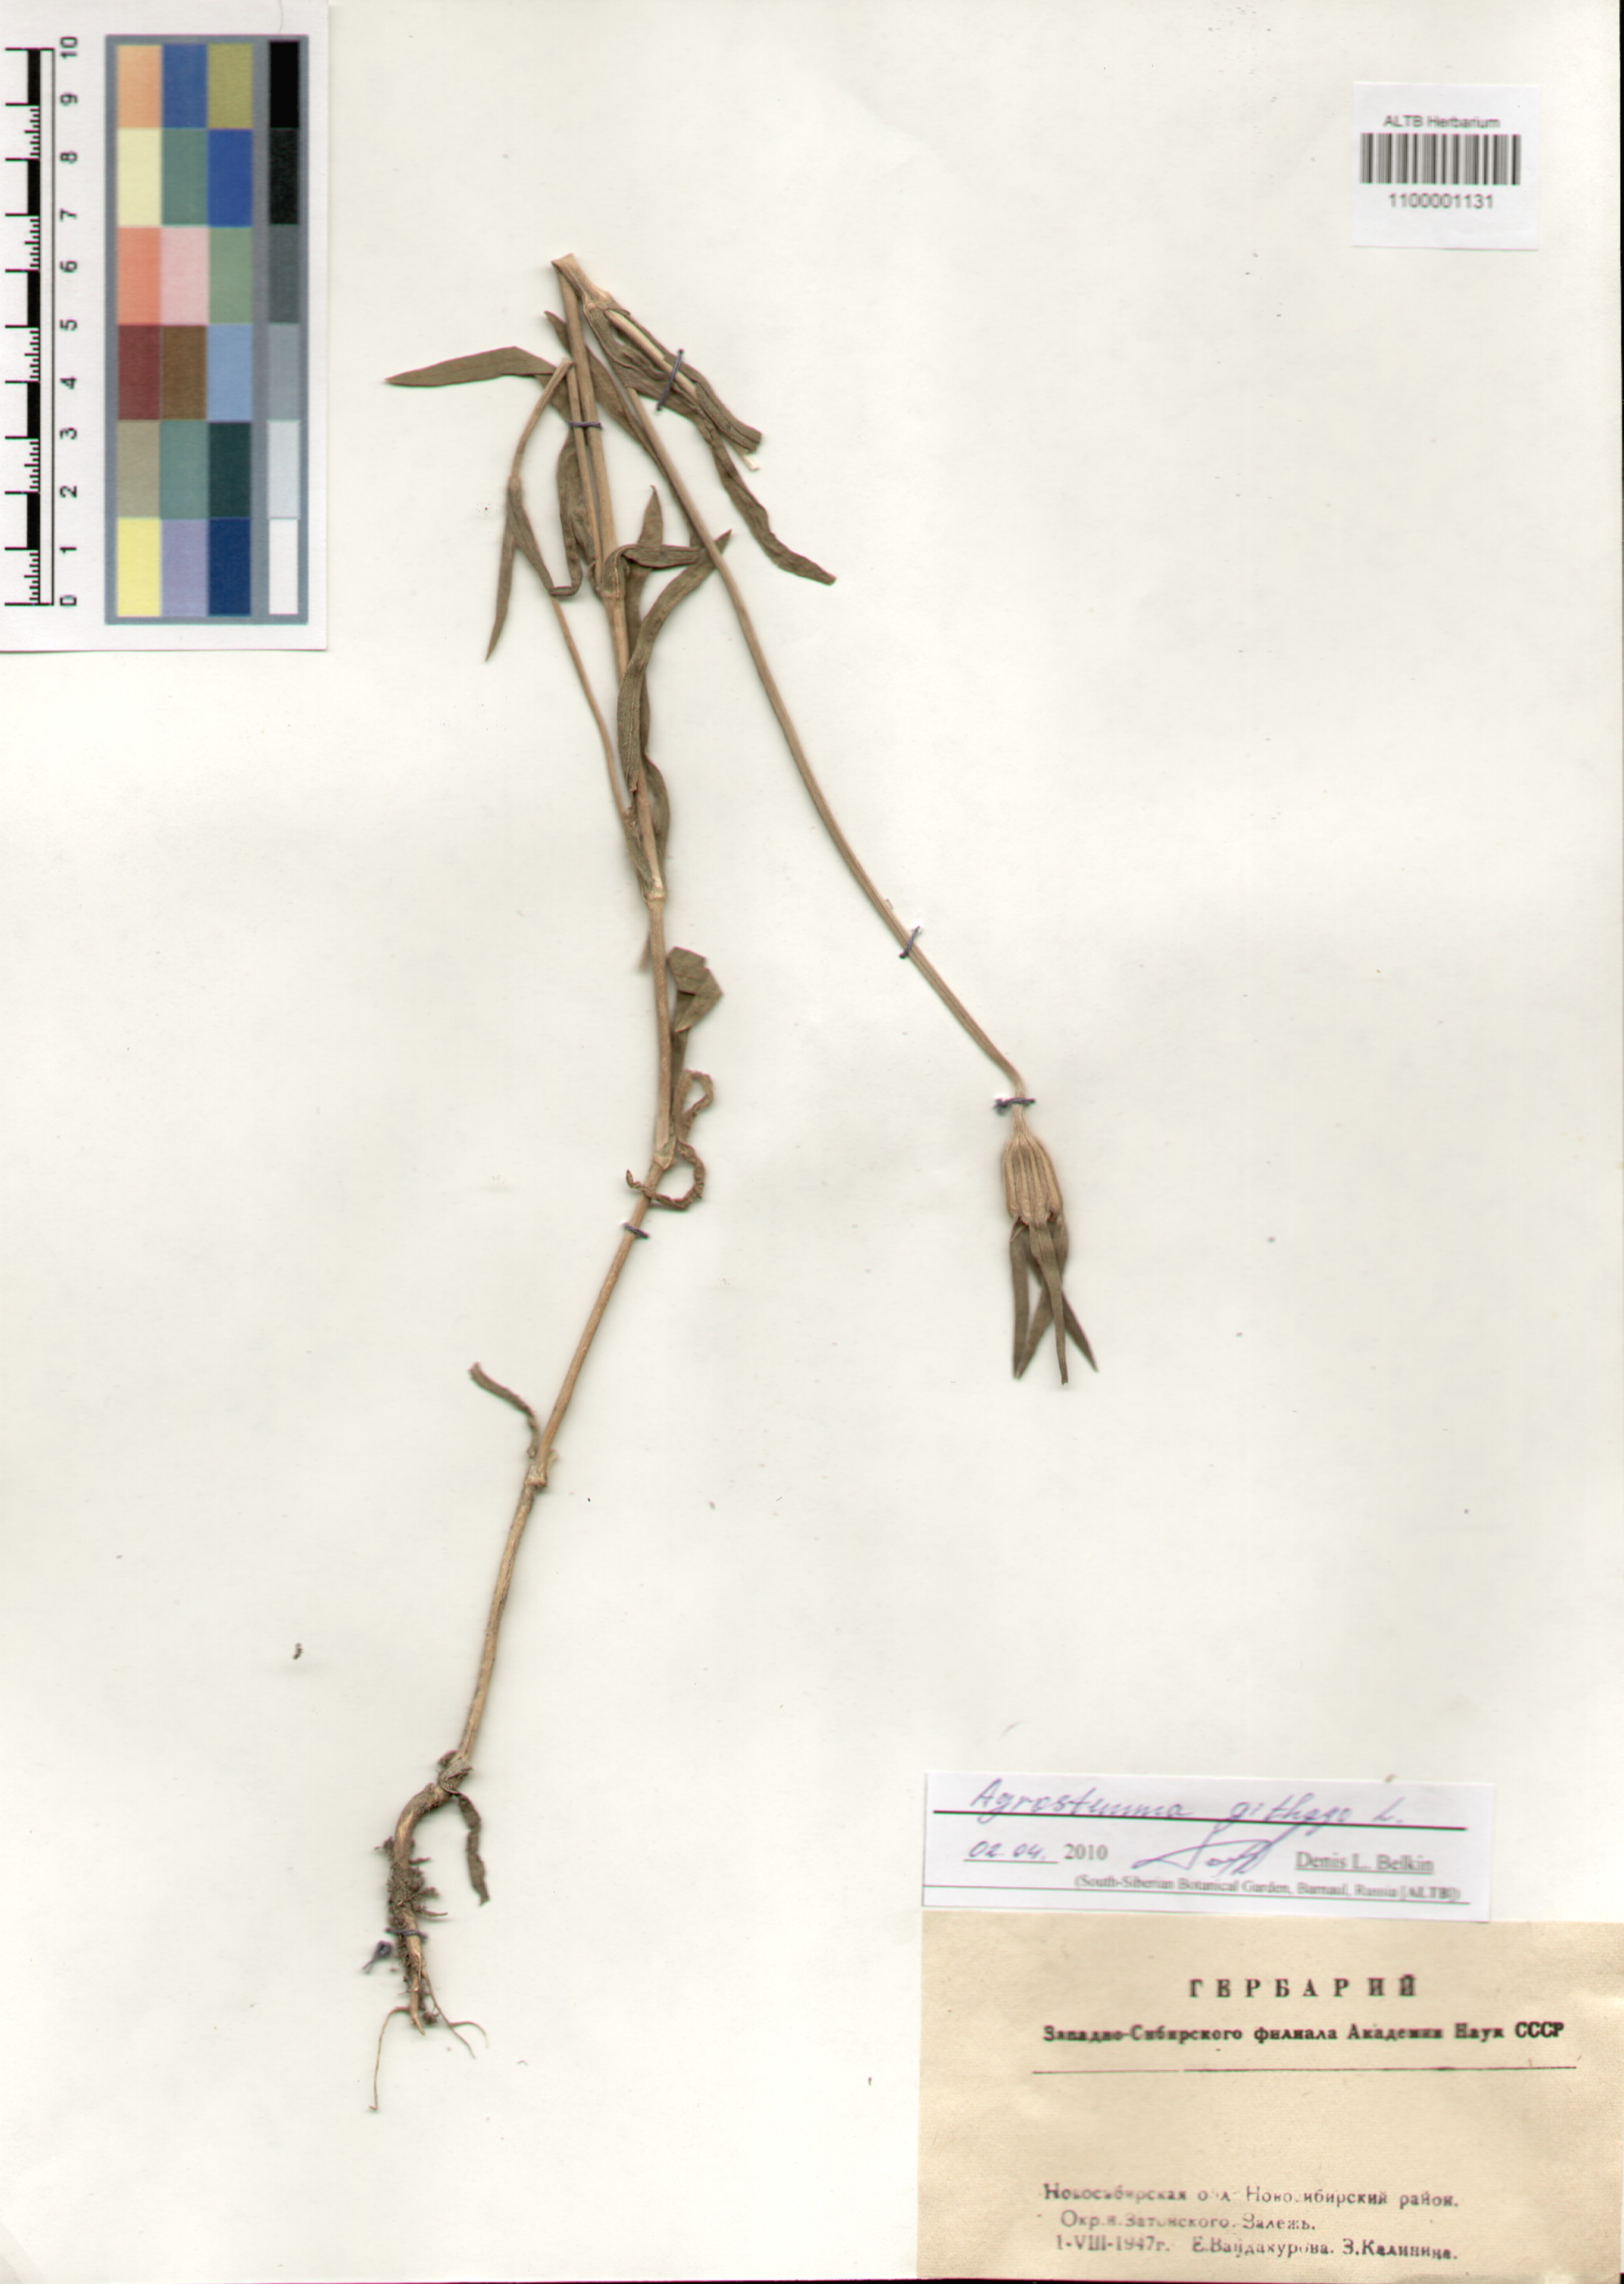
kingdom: Plantae
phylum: Tracheophyta
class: Magnoliopsida
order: Caryophyllales
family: Caryophyllaceae
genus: Agrostemma
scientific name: Agrostemma githago
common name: Common corncockle
